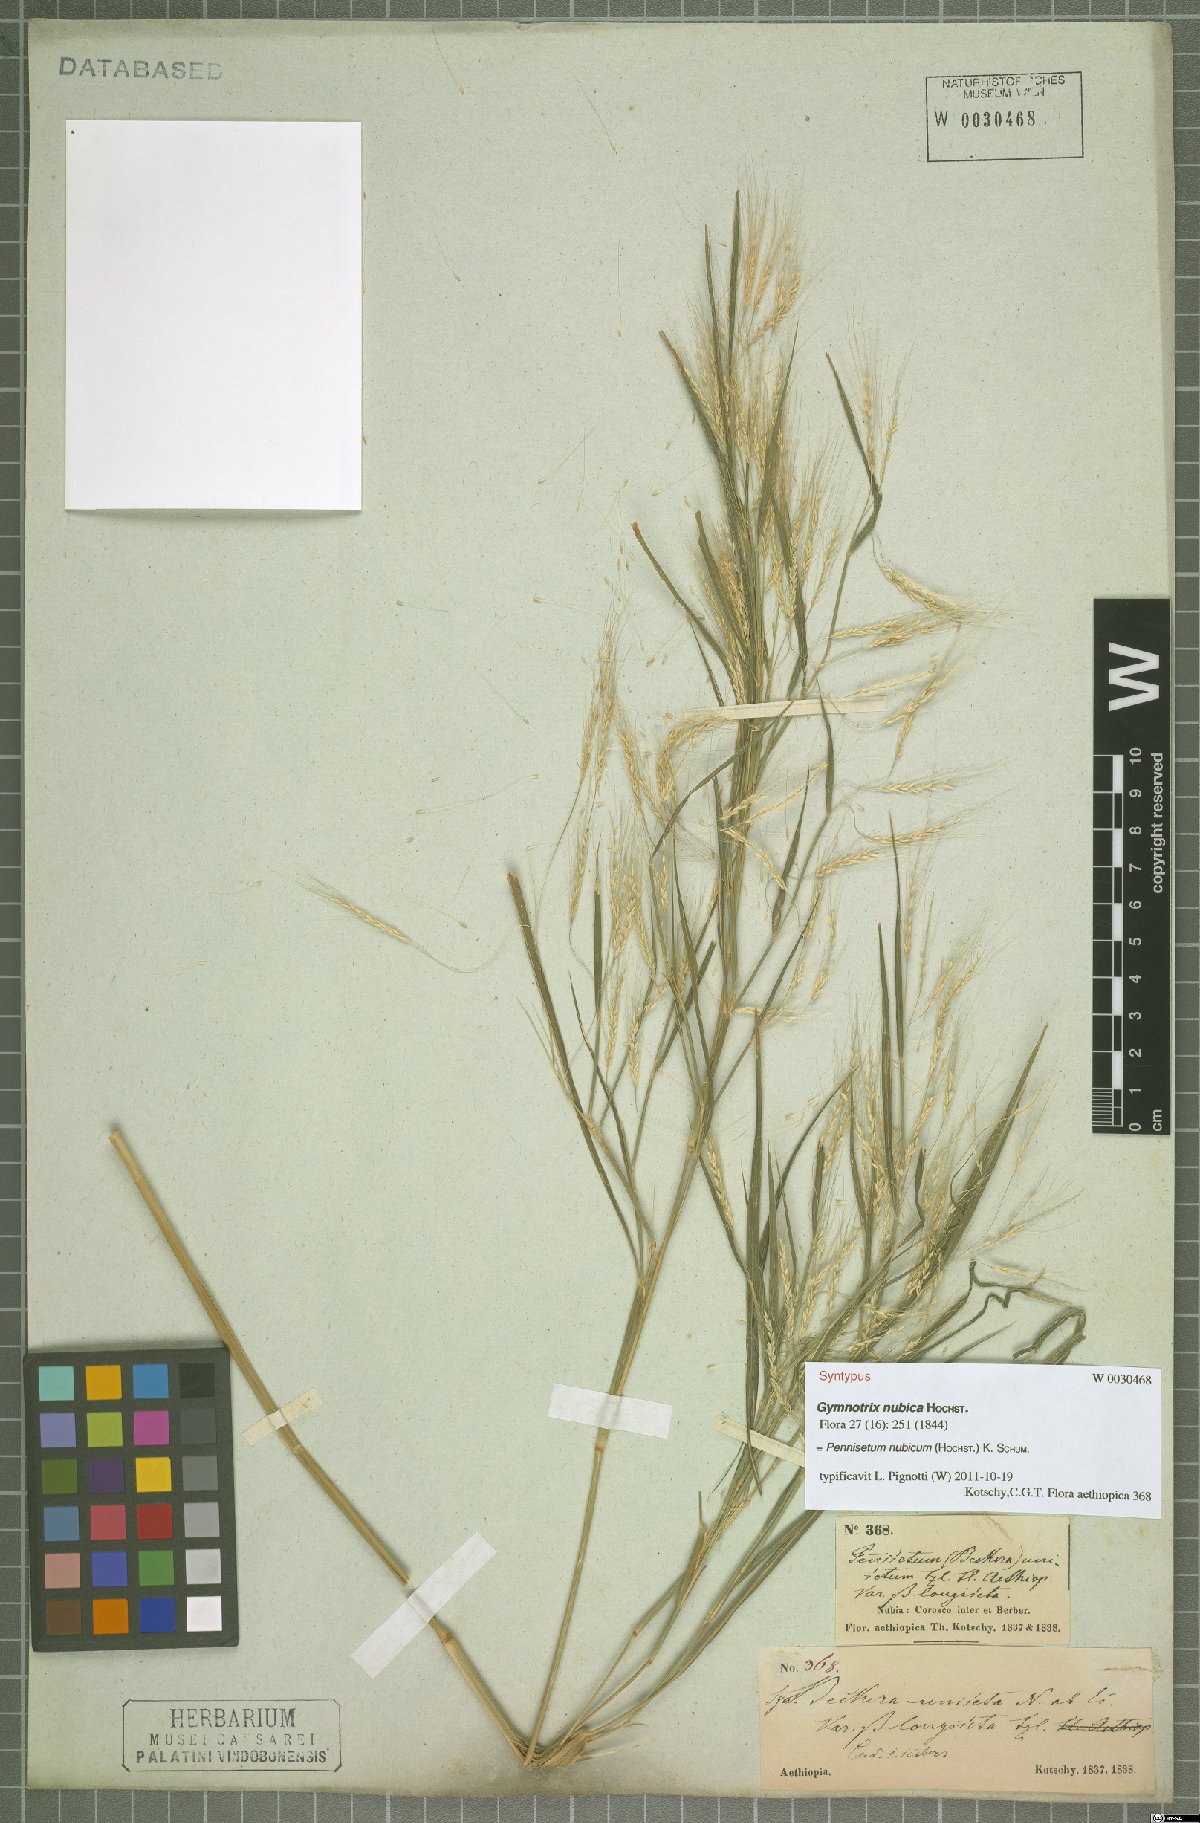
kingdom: Plantae
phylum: Tracheophyta
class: Liliopsida
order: Poales
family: Poaceae
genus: Cenchrus
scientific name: Cenchrus nubicus
